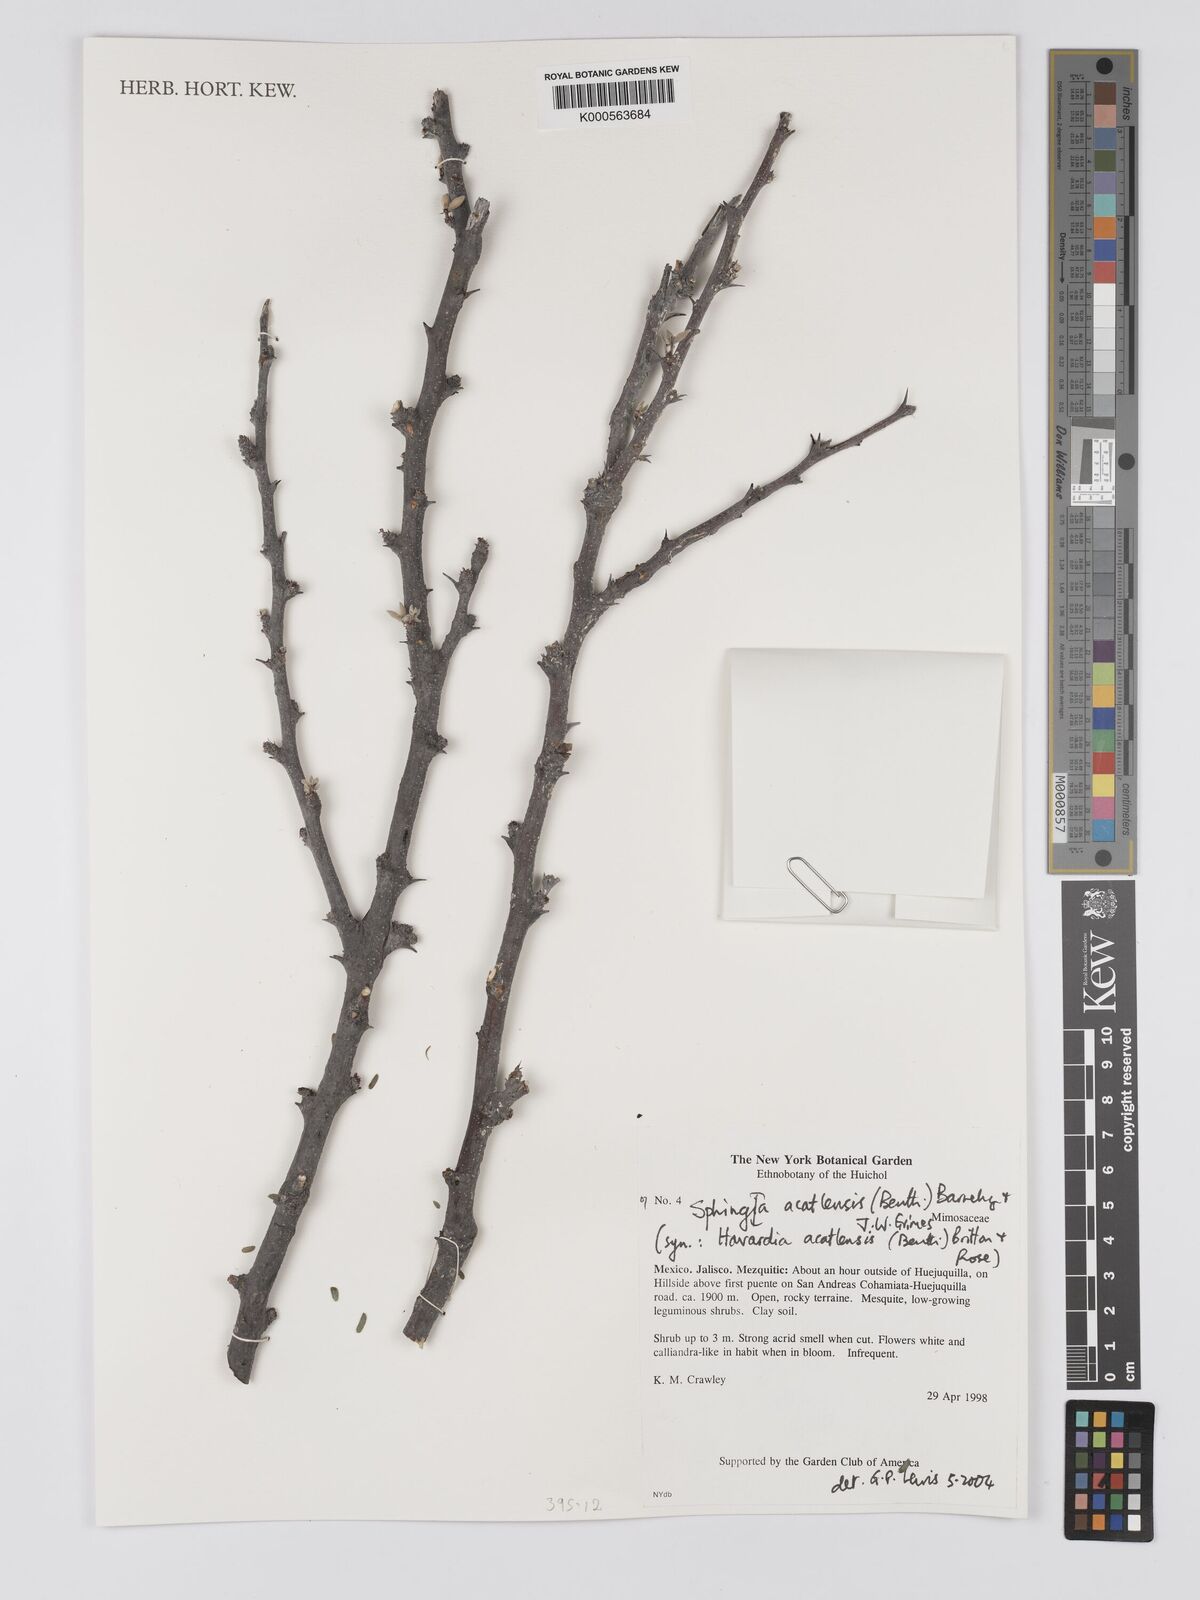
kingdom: Plantae
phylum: Tracheophyta
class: Magnoliopsida
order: Fabales
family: Fabaceae
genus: Havardia
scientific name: Havardia acatlensis
